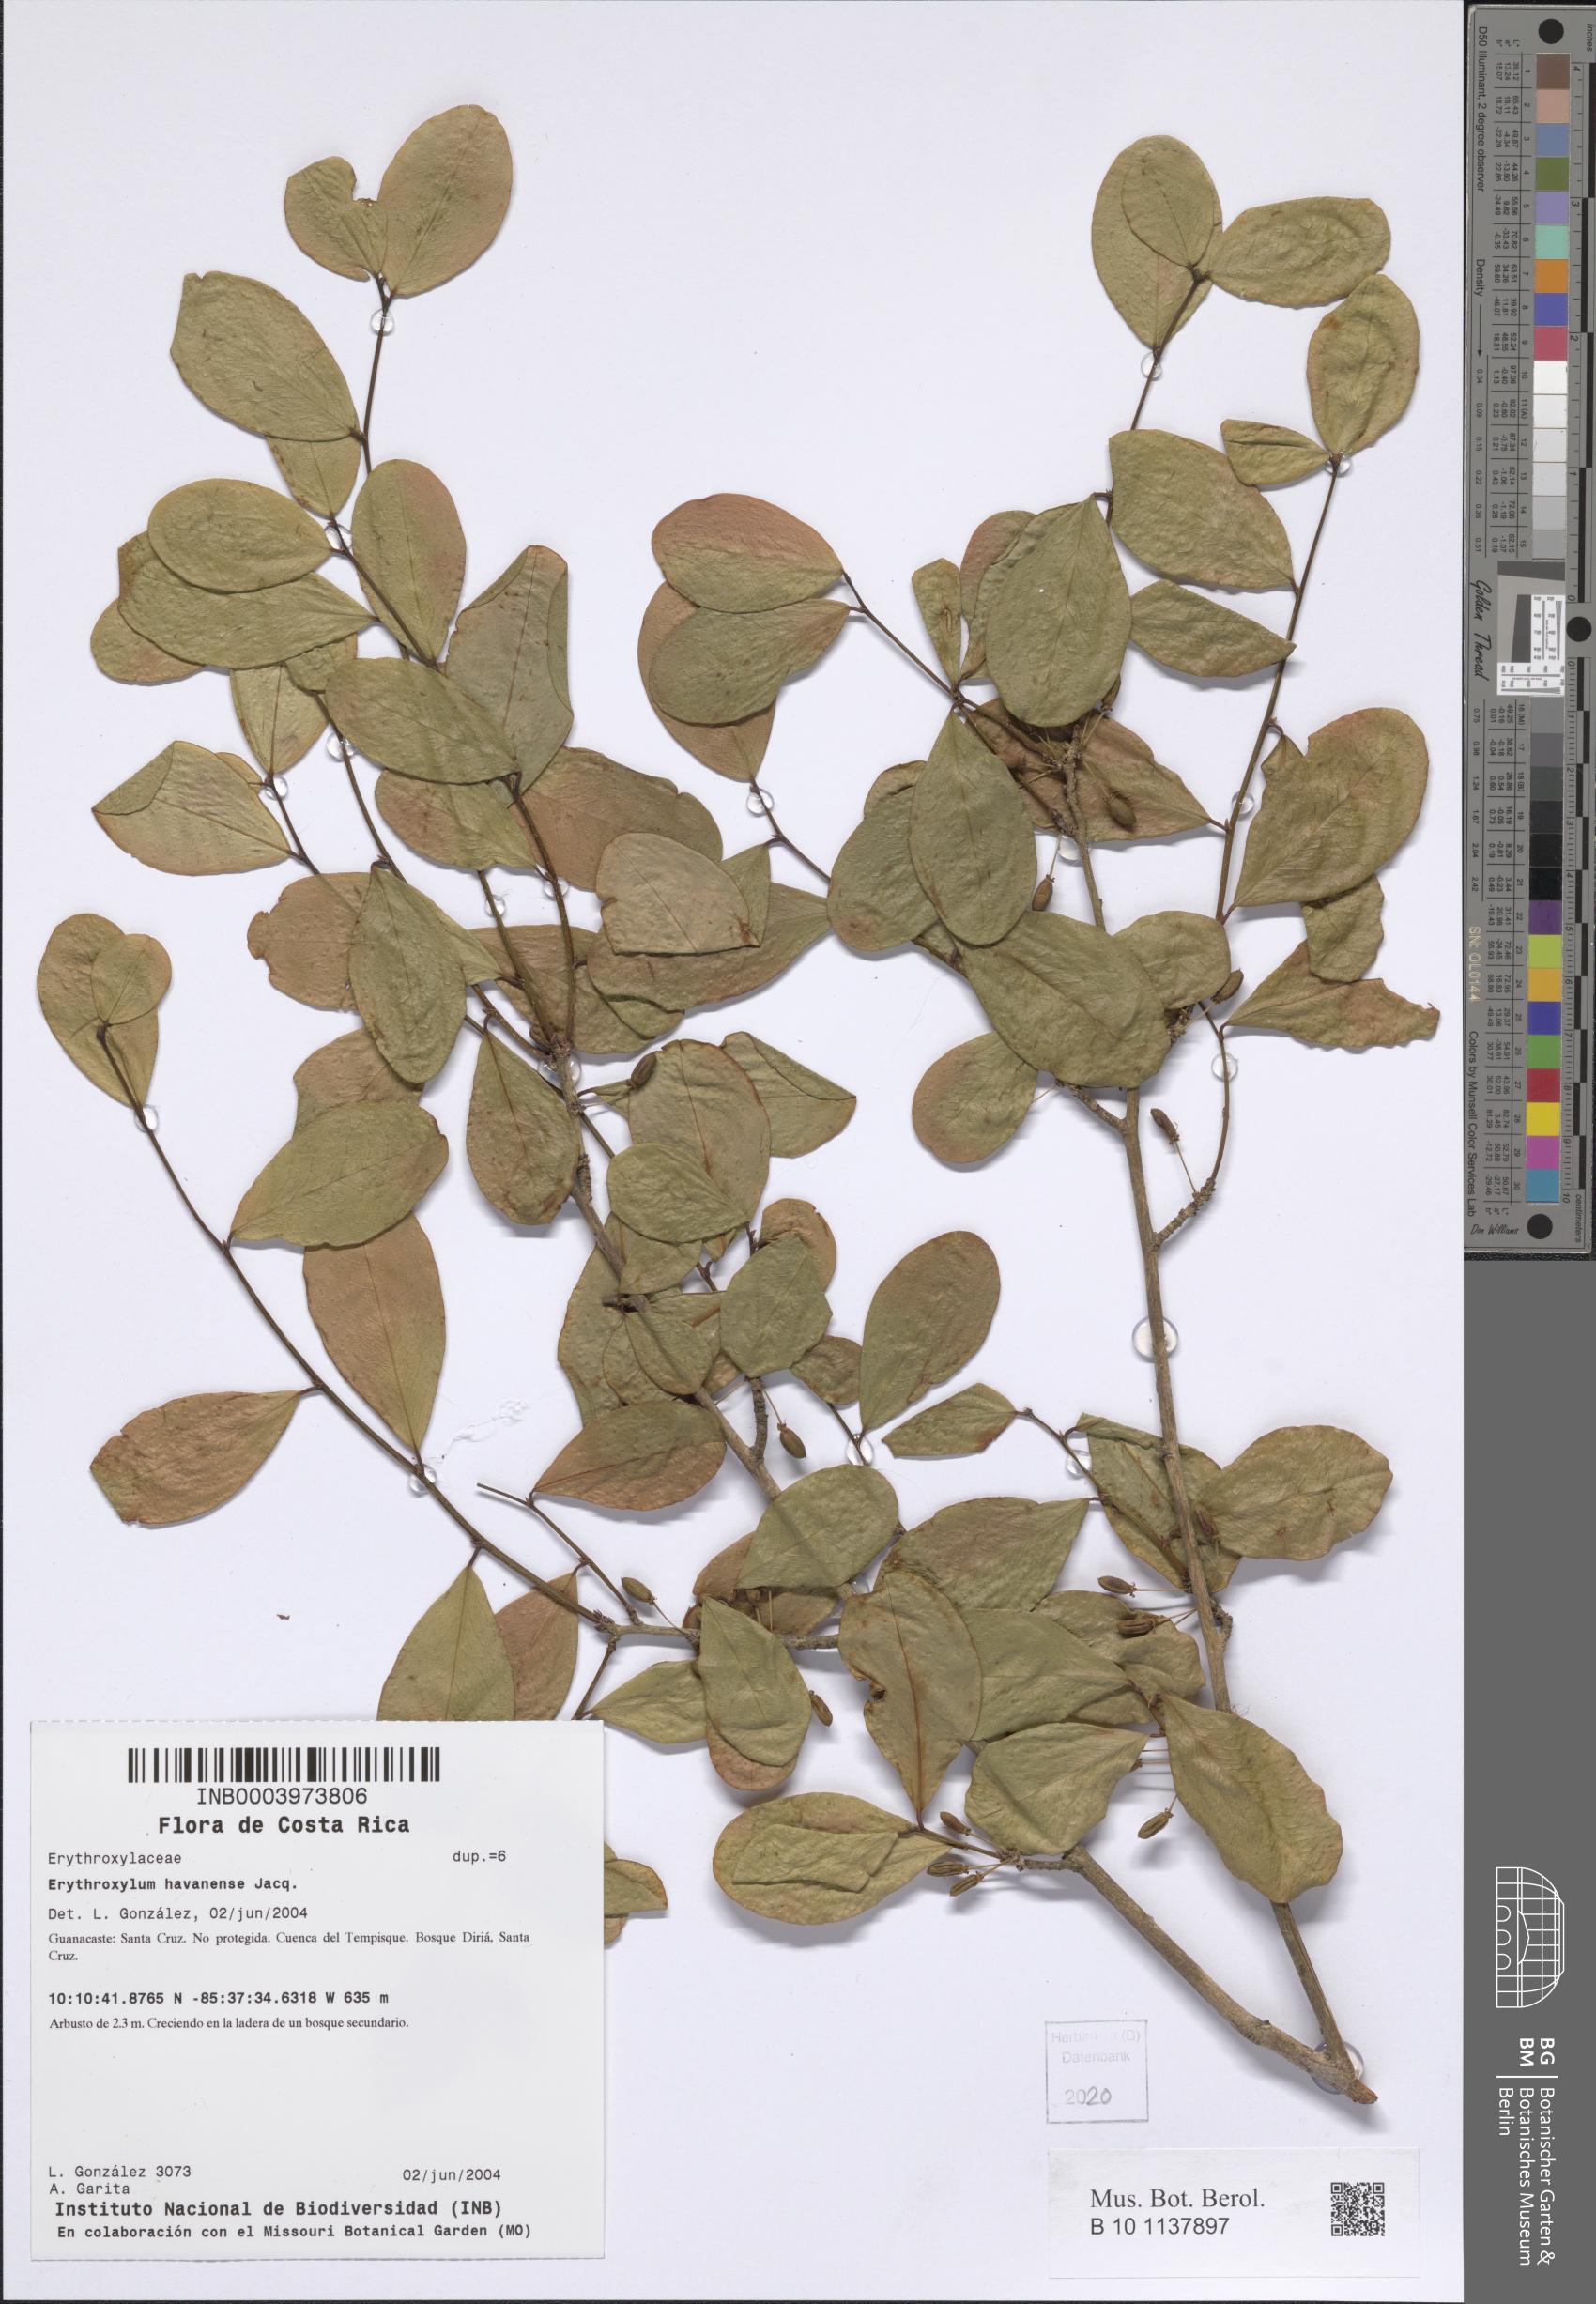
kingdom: Plantae
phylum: Tracheophyta
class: Magnoliopsida
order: Malpighiales
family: Erythroxylaceae
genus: Erythroxylum
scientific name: Erythroxylum squamatum
